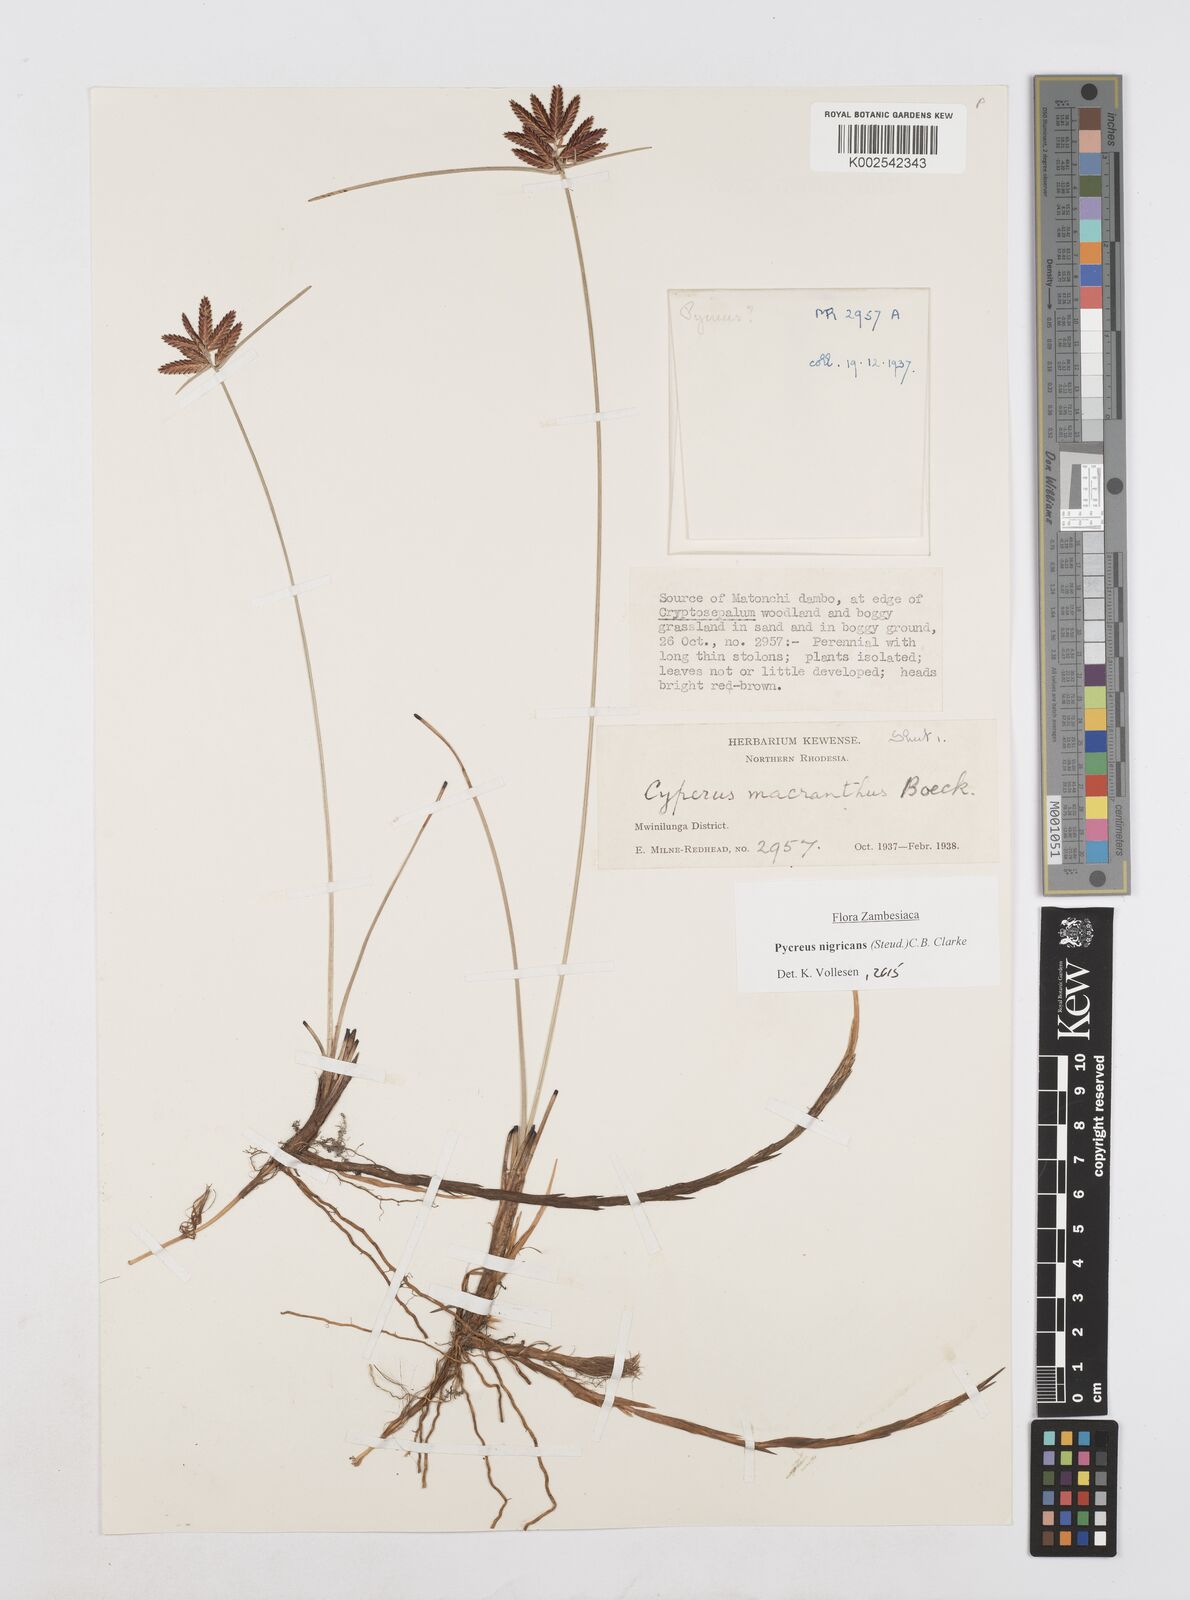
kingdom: Plantae
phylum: Tracheophyta
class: Liliopsida
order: Poales
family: Cyperaceae
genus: Cyperus
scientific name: Cyperus nigricans
